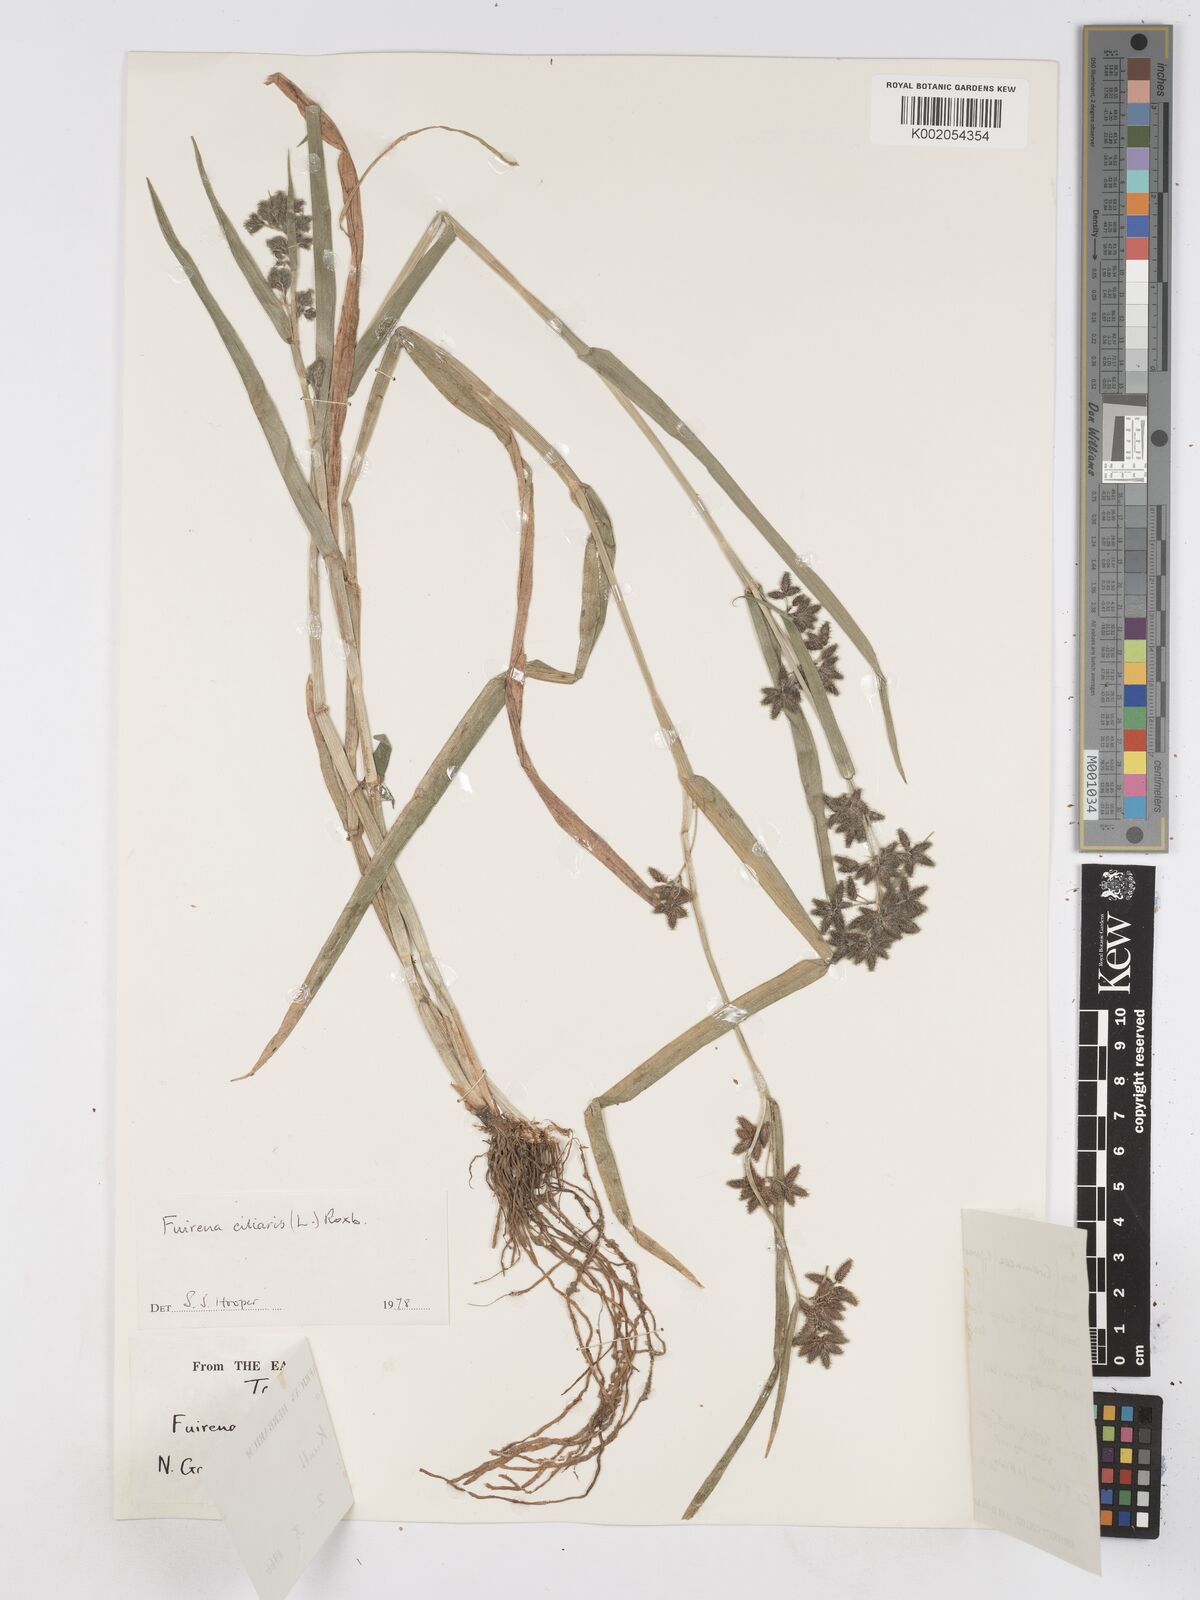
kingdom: Plantae
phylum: Tracheophyta
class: Liliopsida
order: Poales
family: Cyperaceae
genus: Fuirena
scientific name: Fuirena ciliaris
